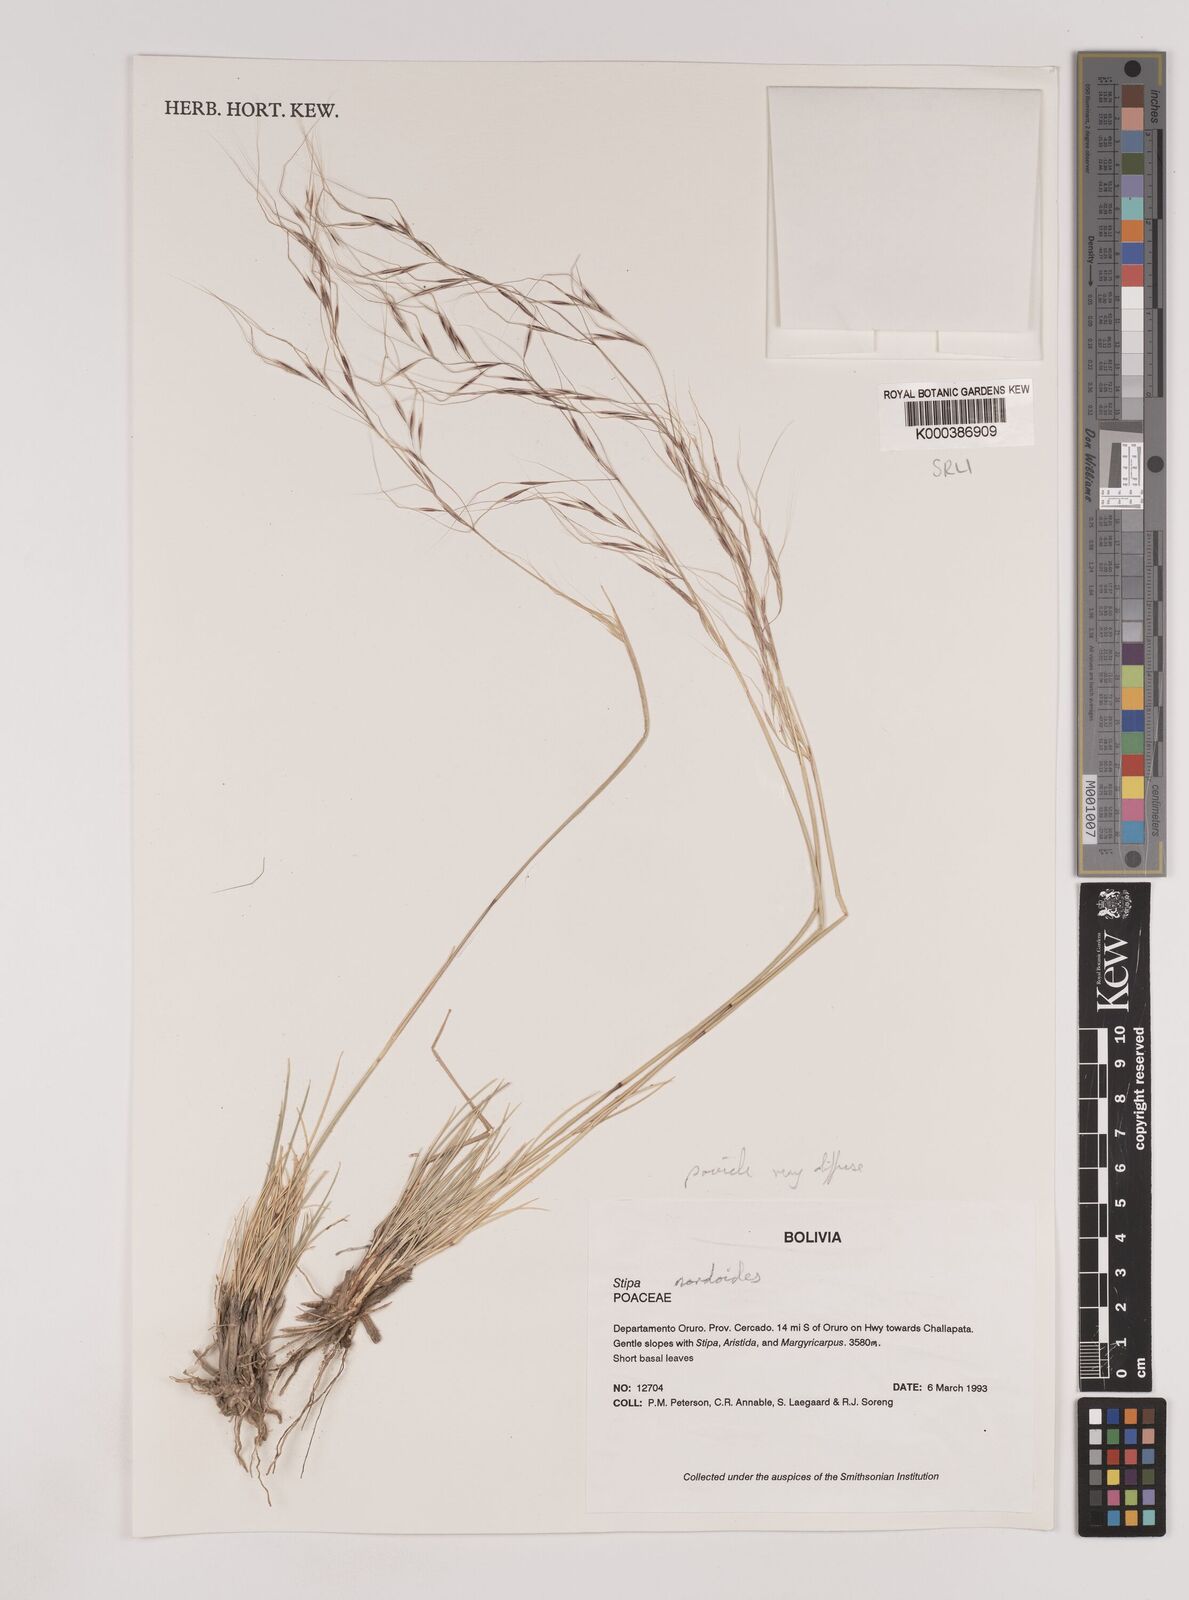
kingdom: Plantae
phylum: Tracheophyta
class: Liliopsida
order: Poales
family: Poaceae
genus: Nassella
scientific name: Nassella nardoides
